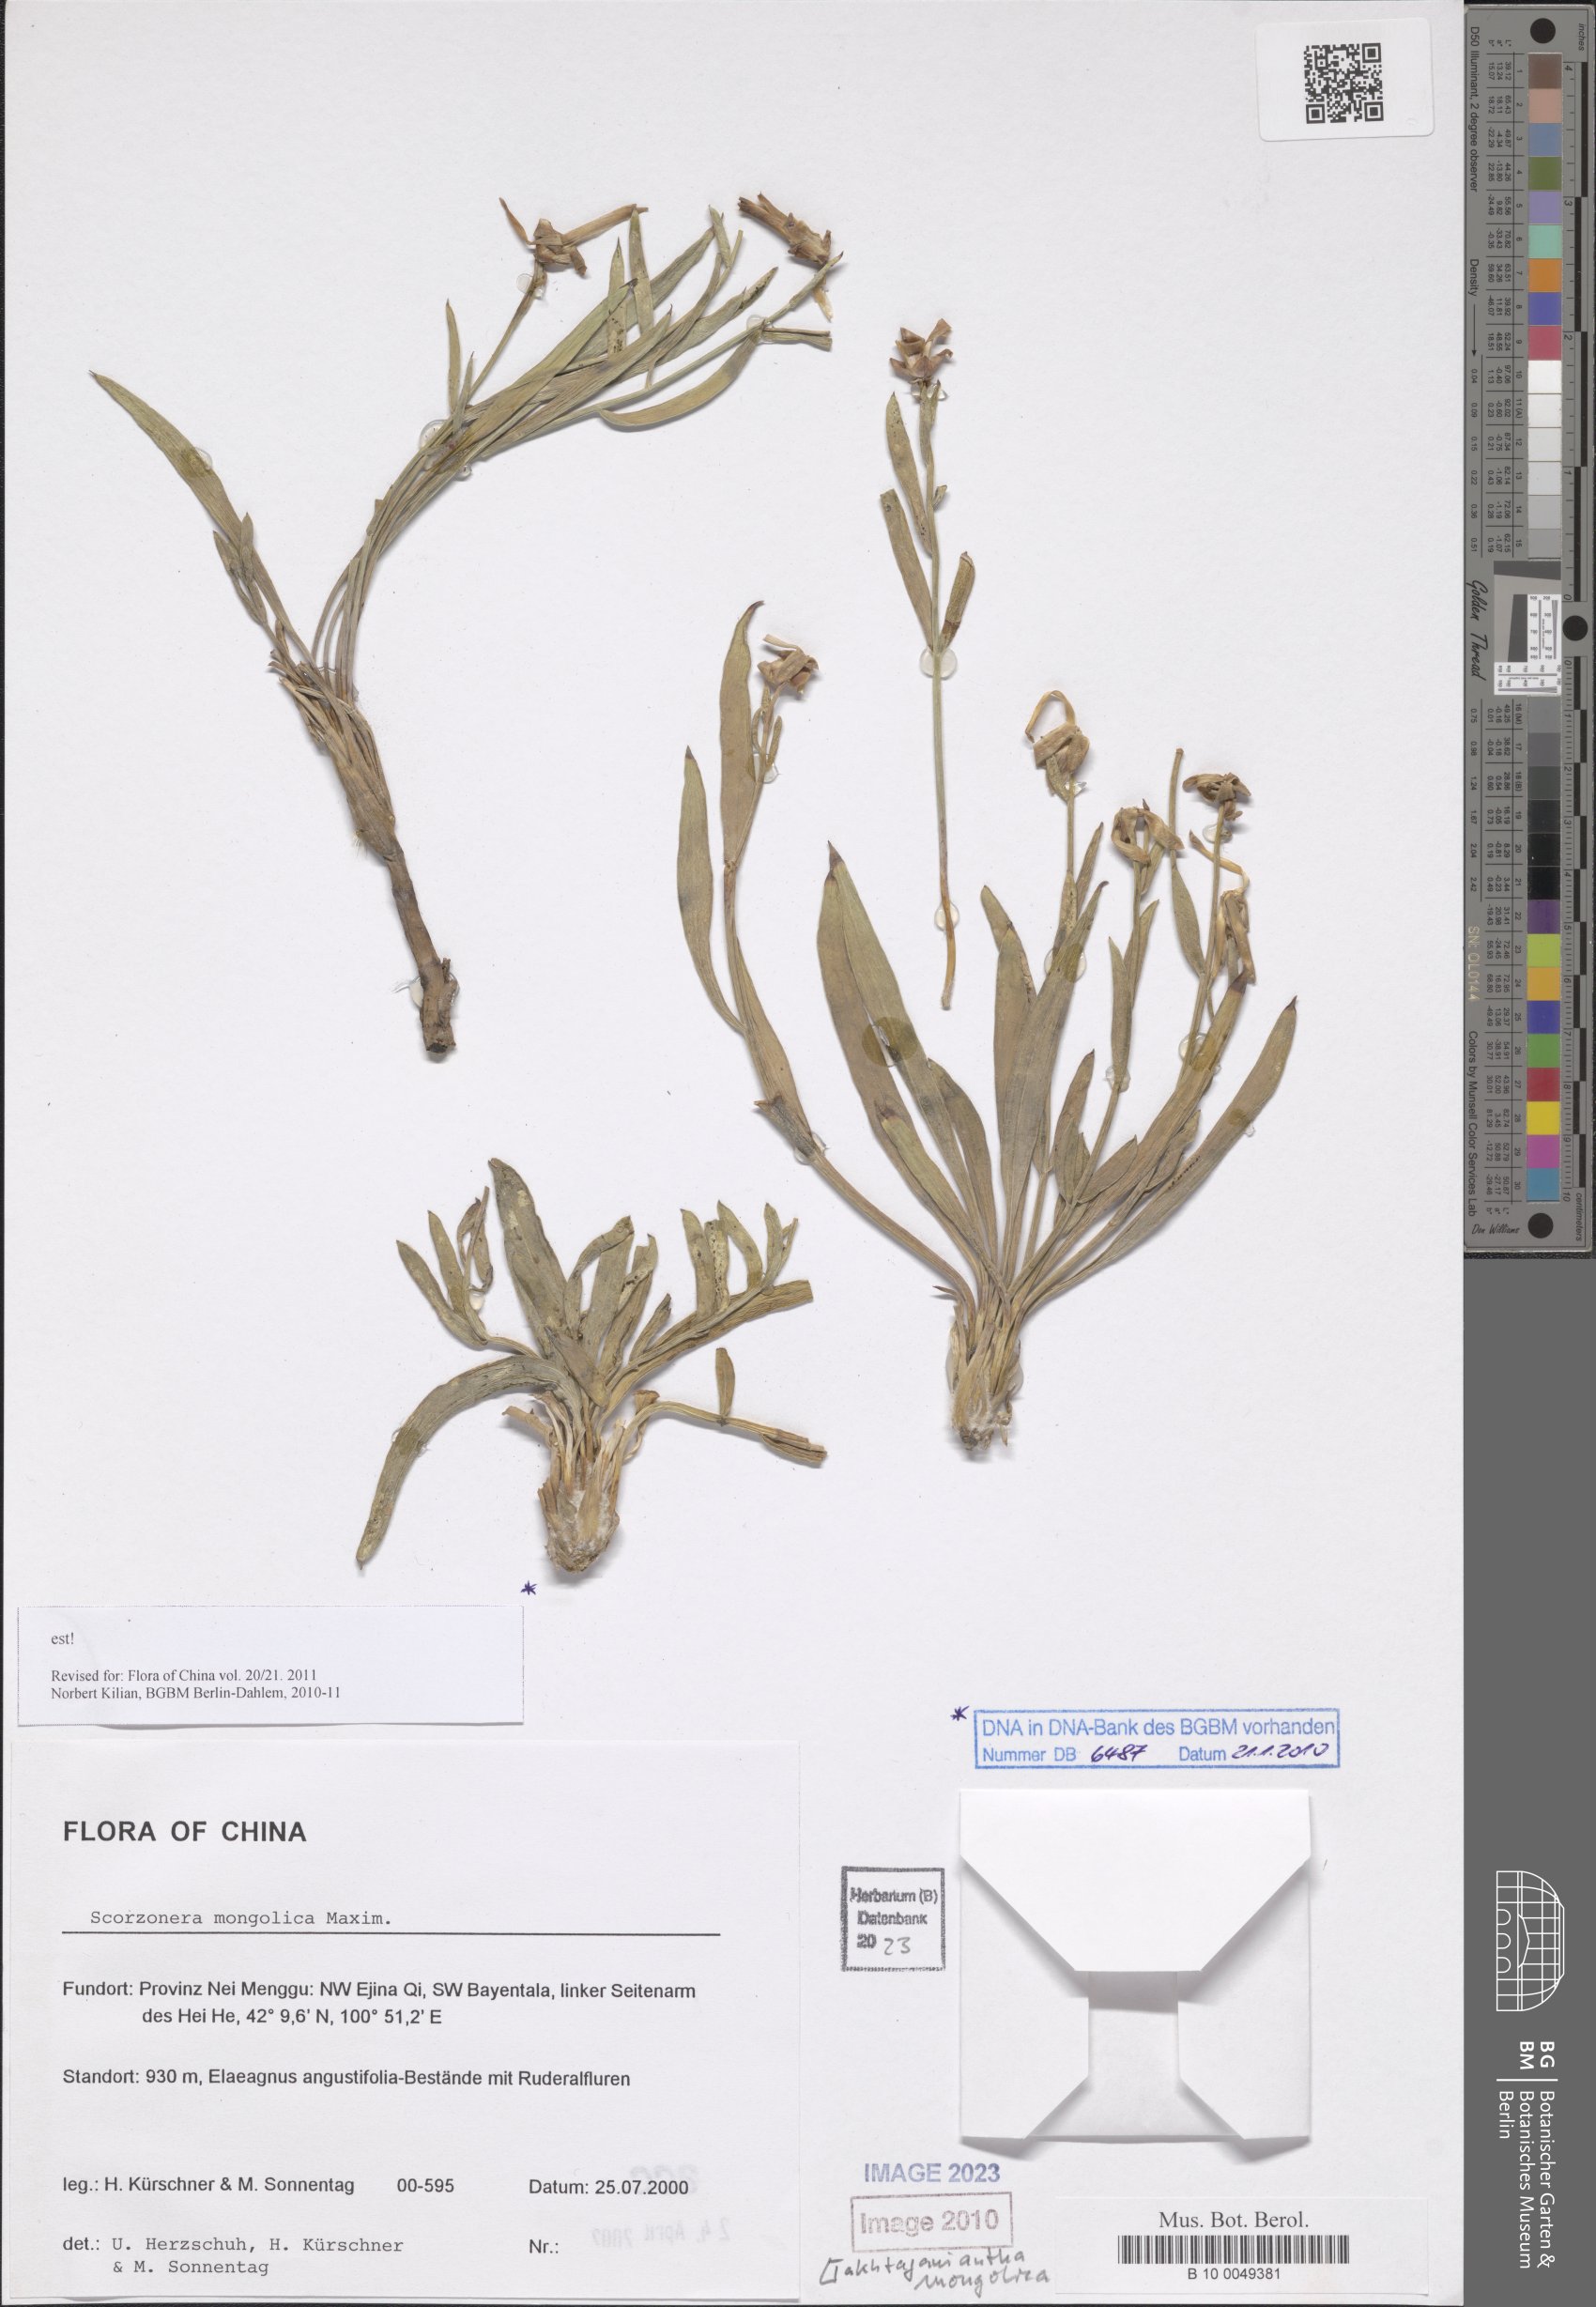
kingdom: Plantae
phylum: Tracheophyta
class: Magnoliopsida
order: Asterales
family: Asteraceae
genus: Takhtajaniantha
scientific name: Takhtajaniantha mongolica
